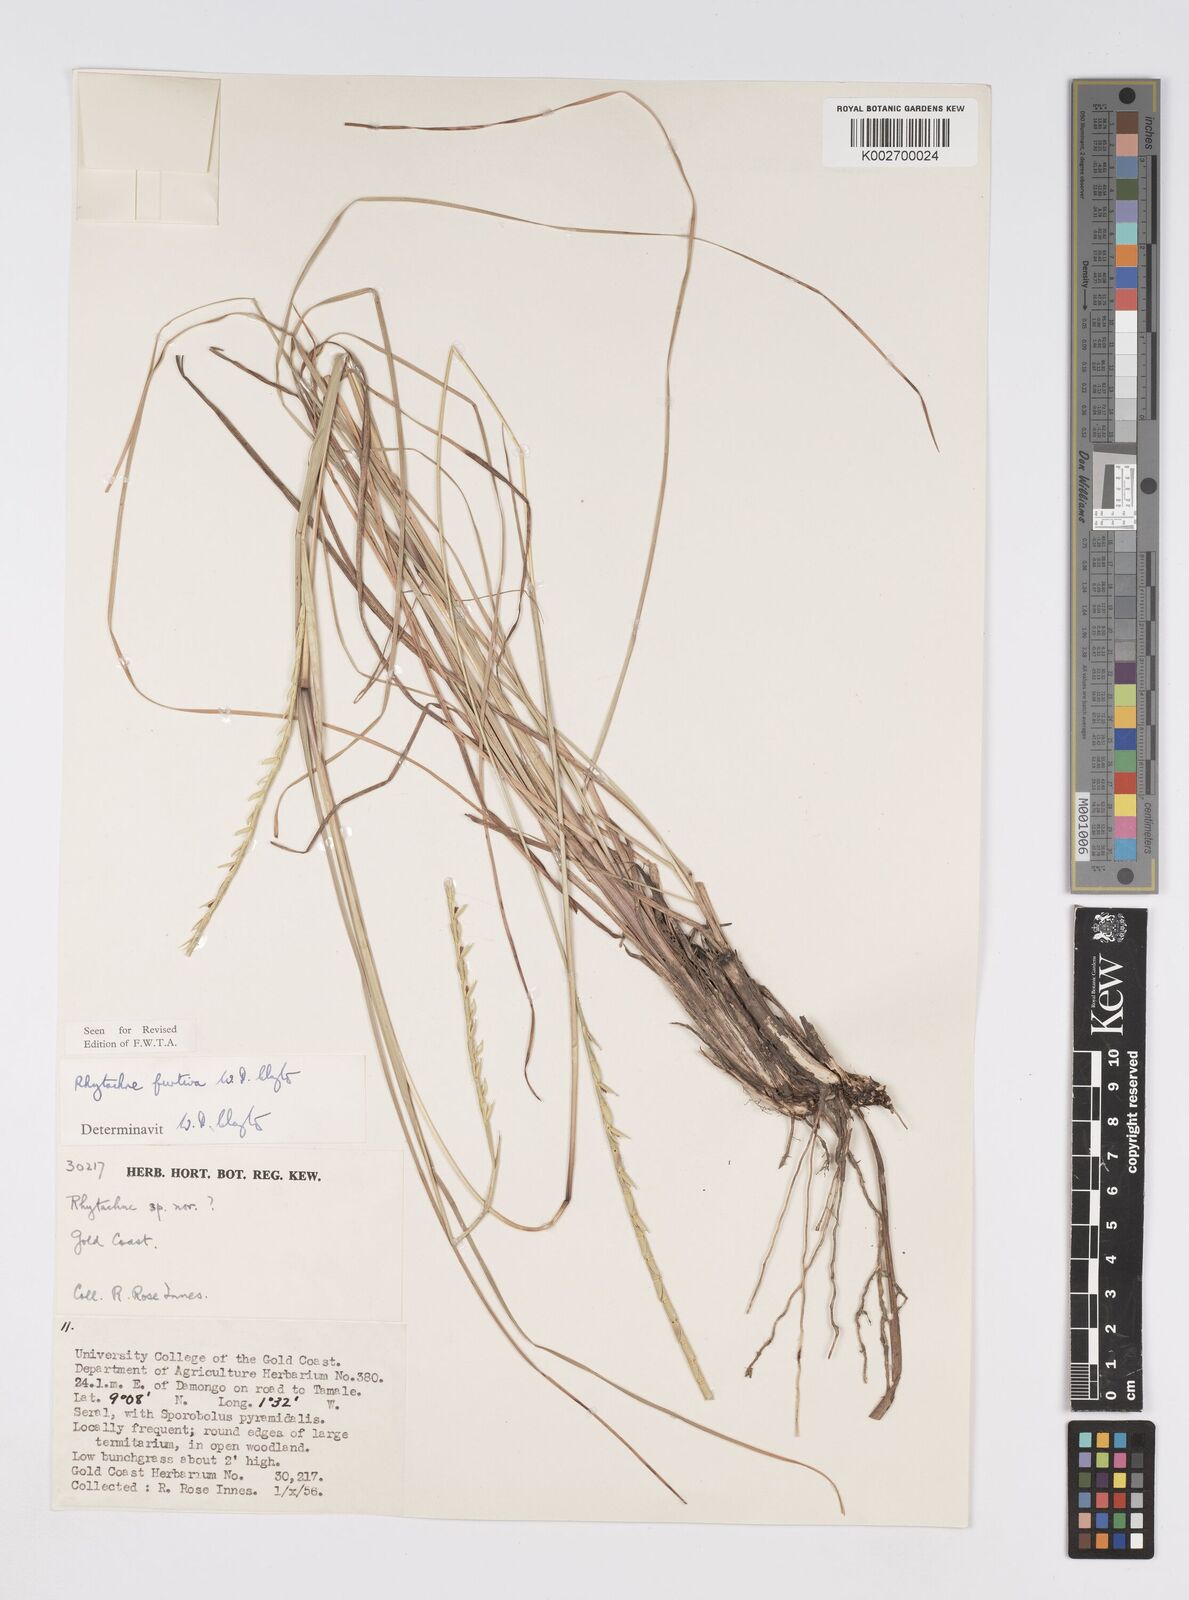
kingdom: Plantae
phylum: Tracheophyta
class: Liliopsida
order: Poales
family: Poaceae
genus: Rhytachne
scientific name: Rhytachne furtiva
